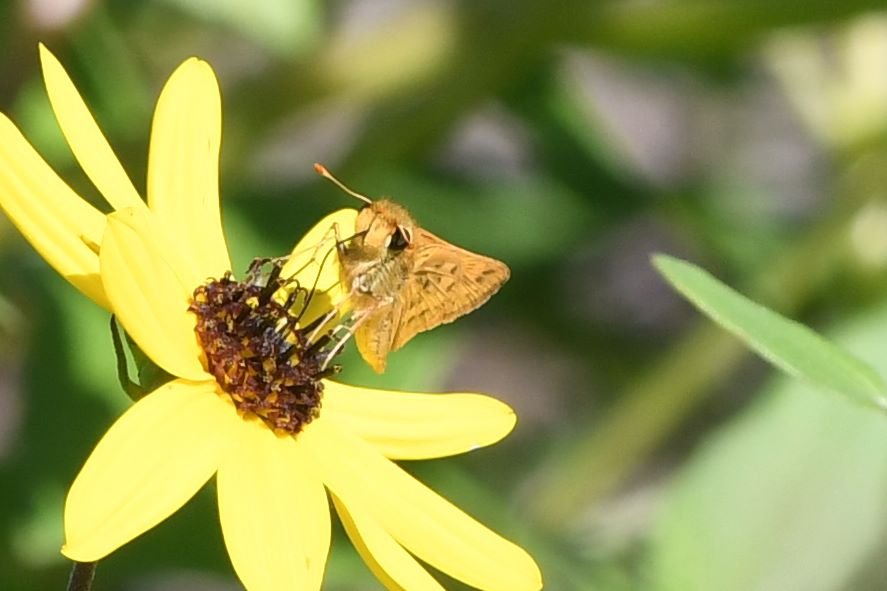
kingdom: Animalia
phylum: Arthropoda
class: Insecta
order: Lepidoptera
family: Hesperiidae
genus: Hylephila
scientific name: Hylephila phyleus
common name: Fiery Skipper
